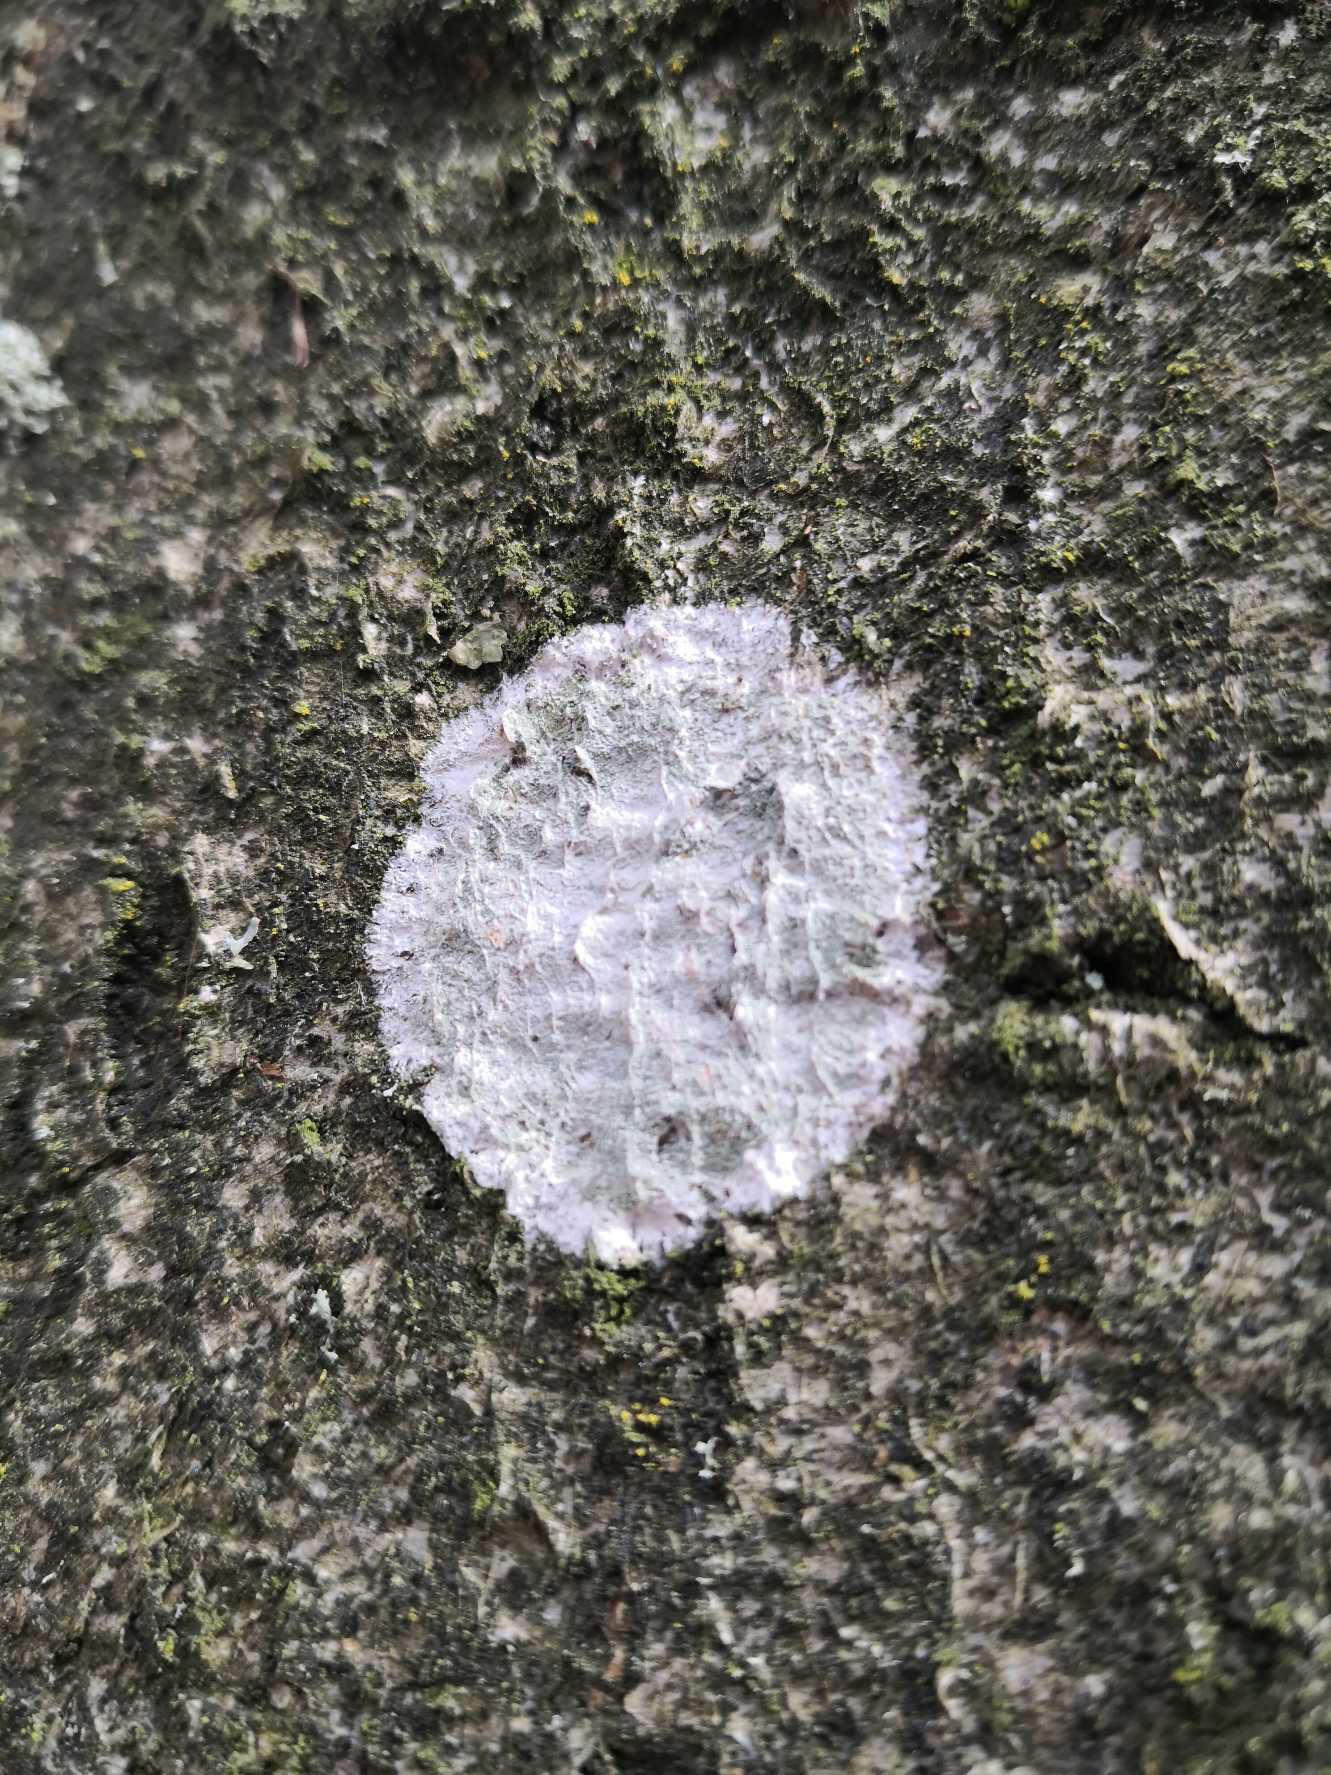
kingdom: Fungi
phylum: Ascomycota
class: Lecanoromycetes
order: Ostropales
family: Phlyctidaceae
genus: Phlyctis
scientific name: Phlyctis argena
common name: Almindelig sølvlav
